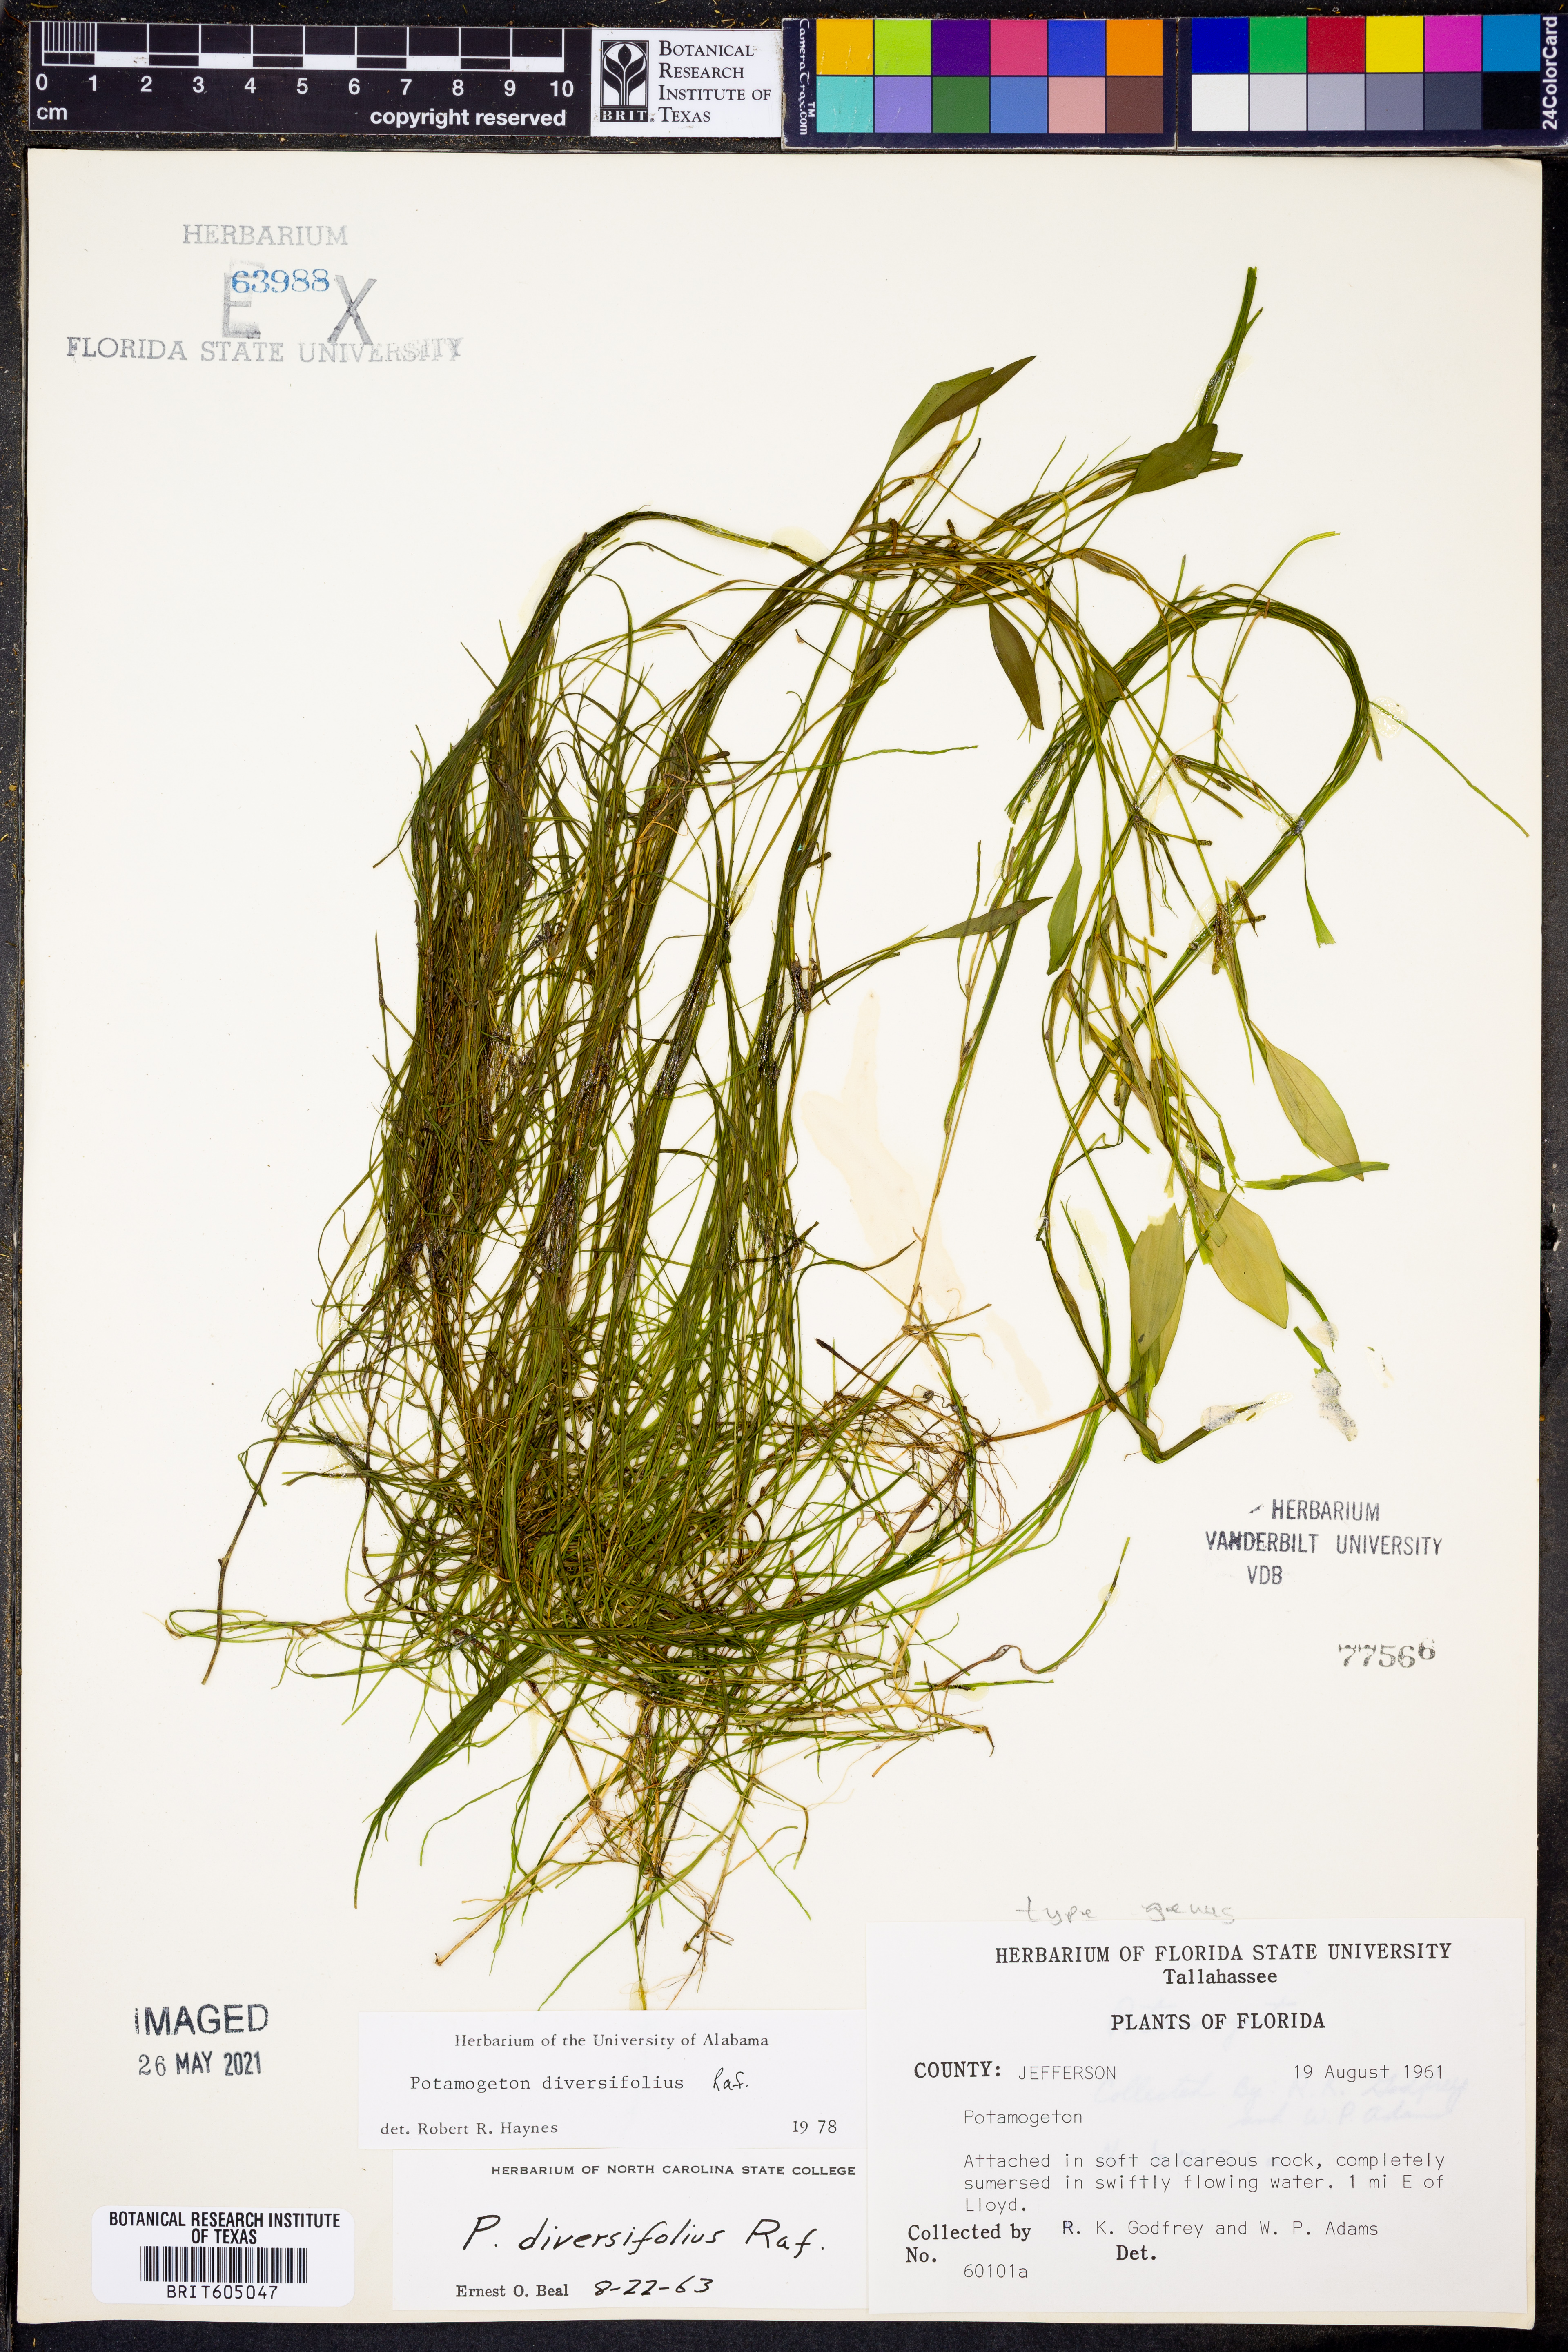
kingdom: Plantae
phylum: Tracheophyta
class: Liliopsida
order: Alismatales
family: Potamogetonaceae
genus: Potamogeton
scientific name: Potamogeton diversifolius
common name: Water-thread pondweed
